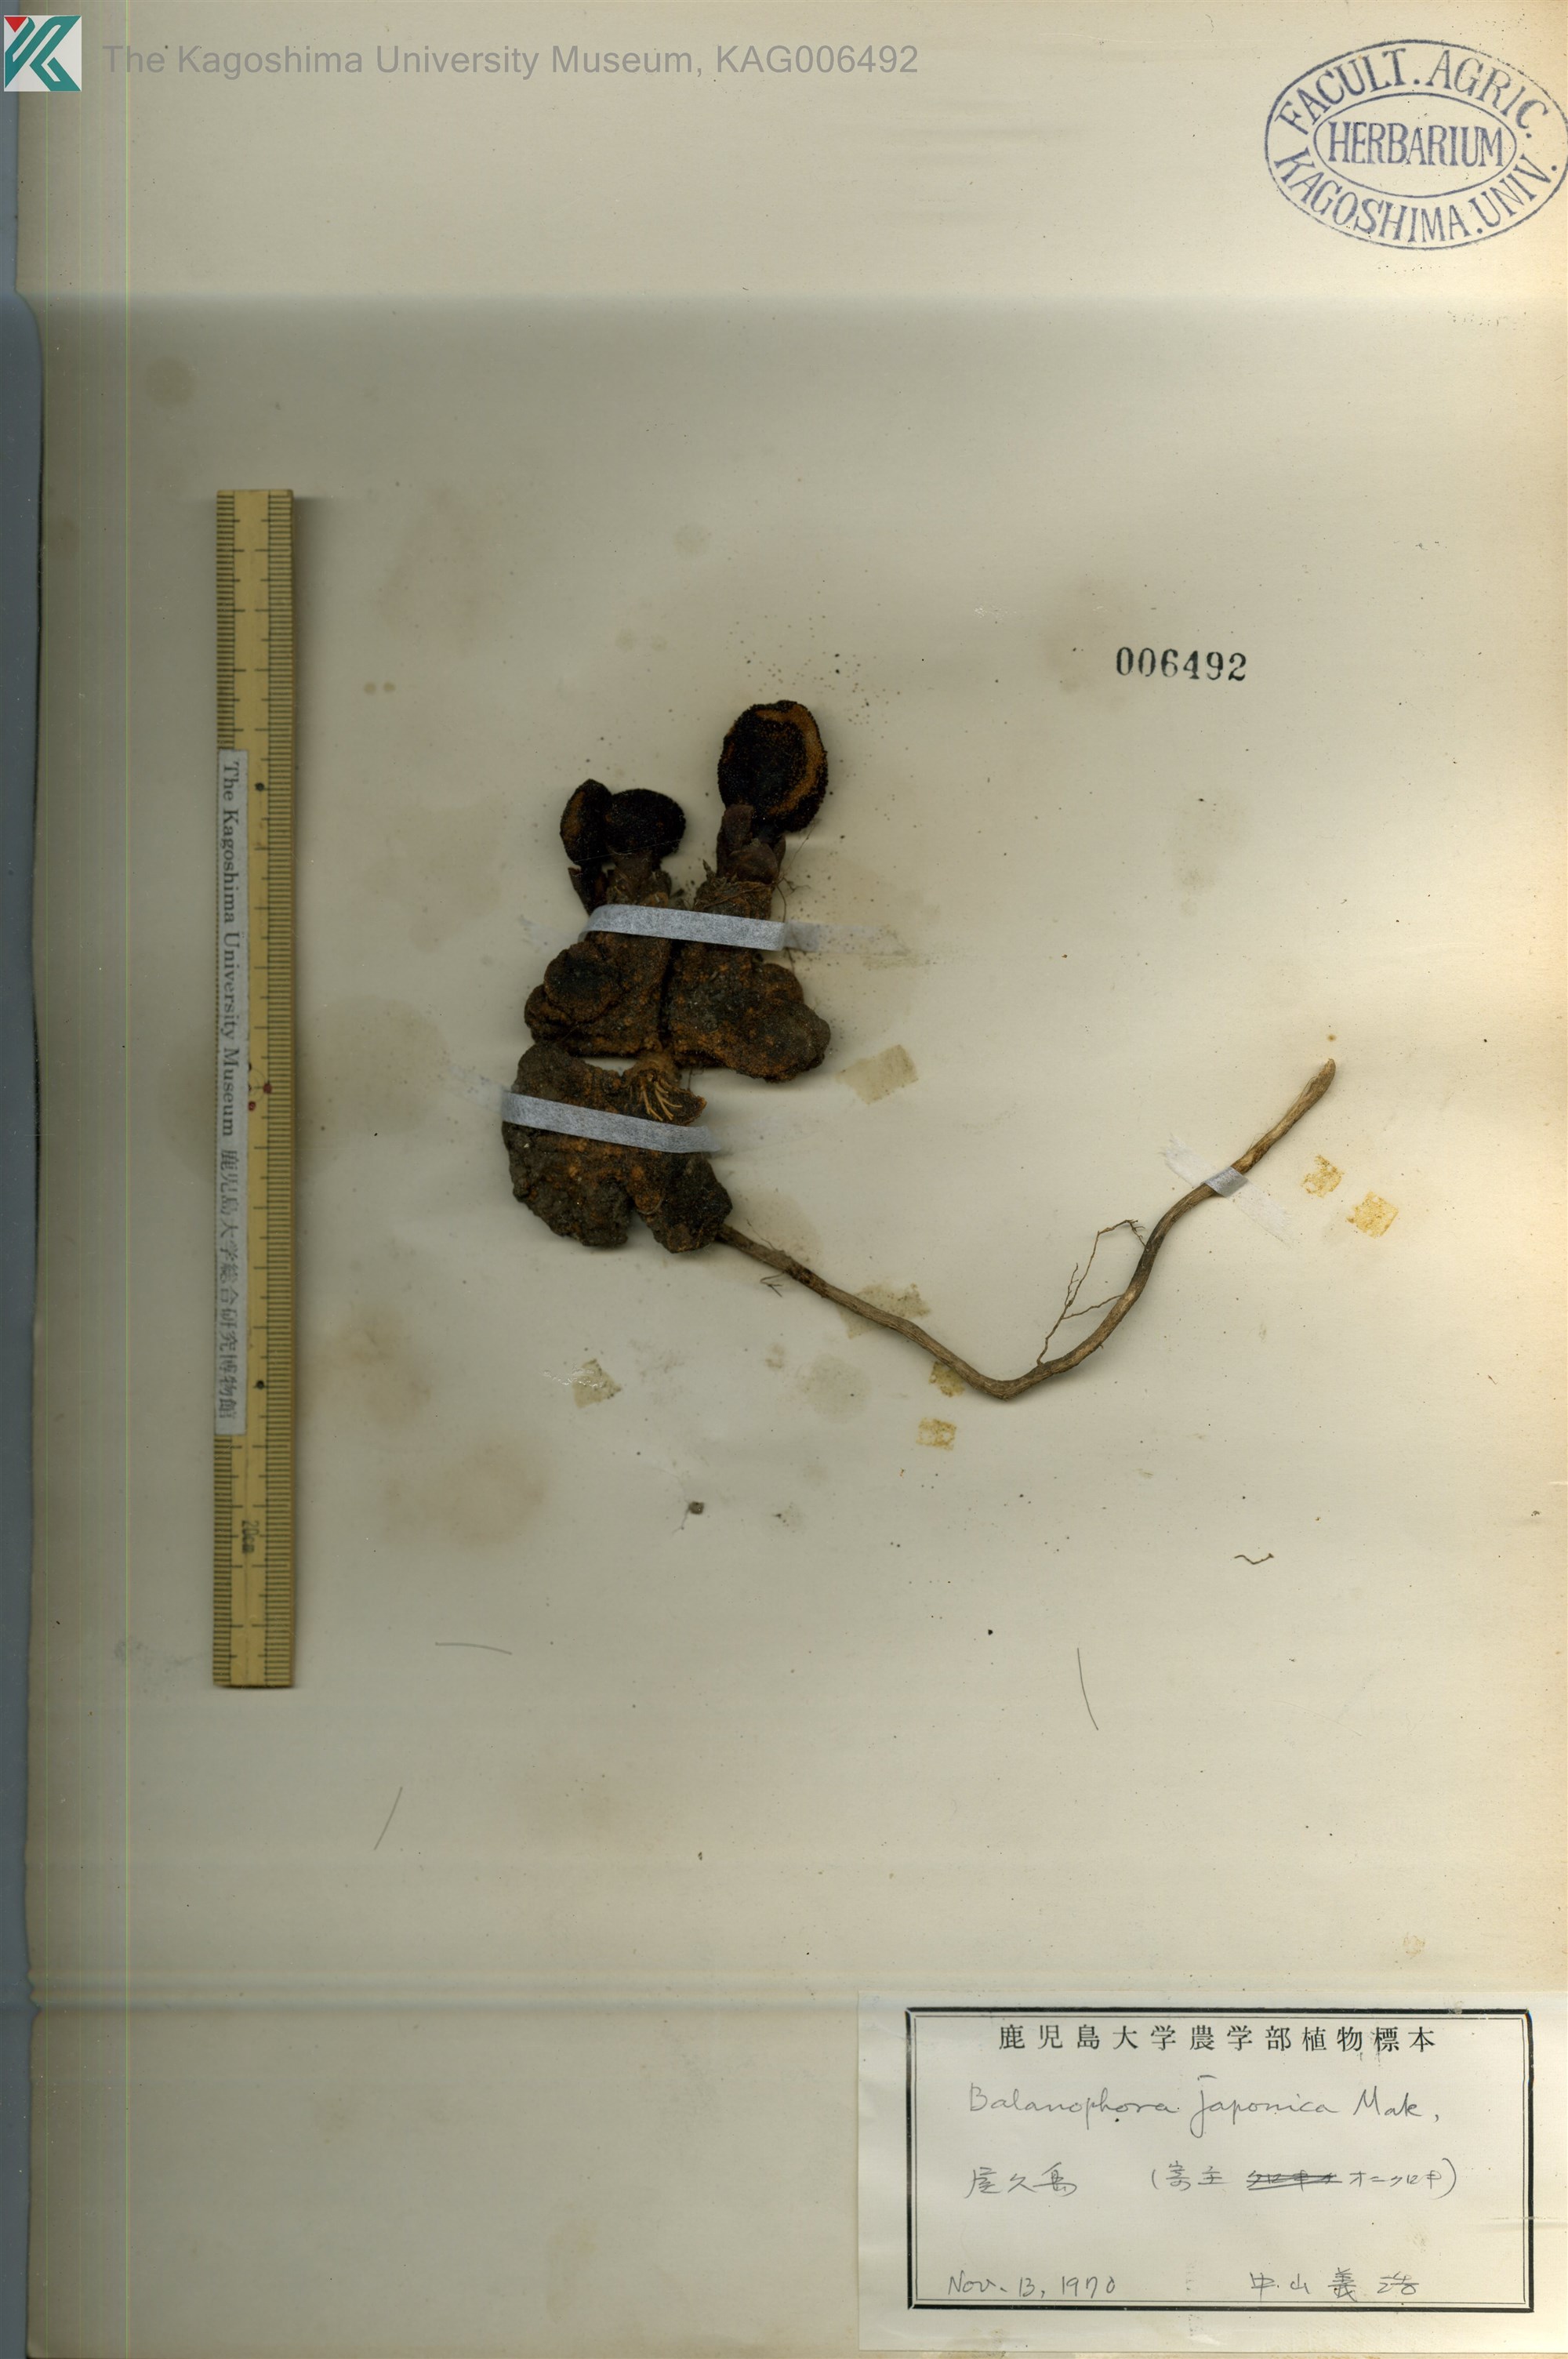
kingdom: Plantae
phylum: Tracheophyta
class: Magnoliopsida
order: Santalales
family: Balanophoraceae
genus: Balanophora
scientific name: Balanophora yakushimensis
